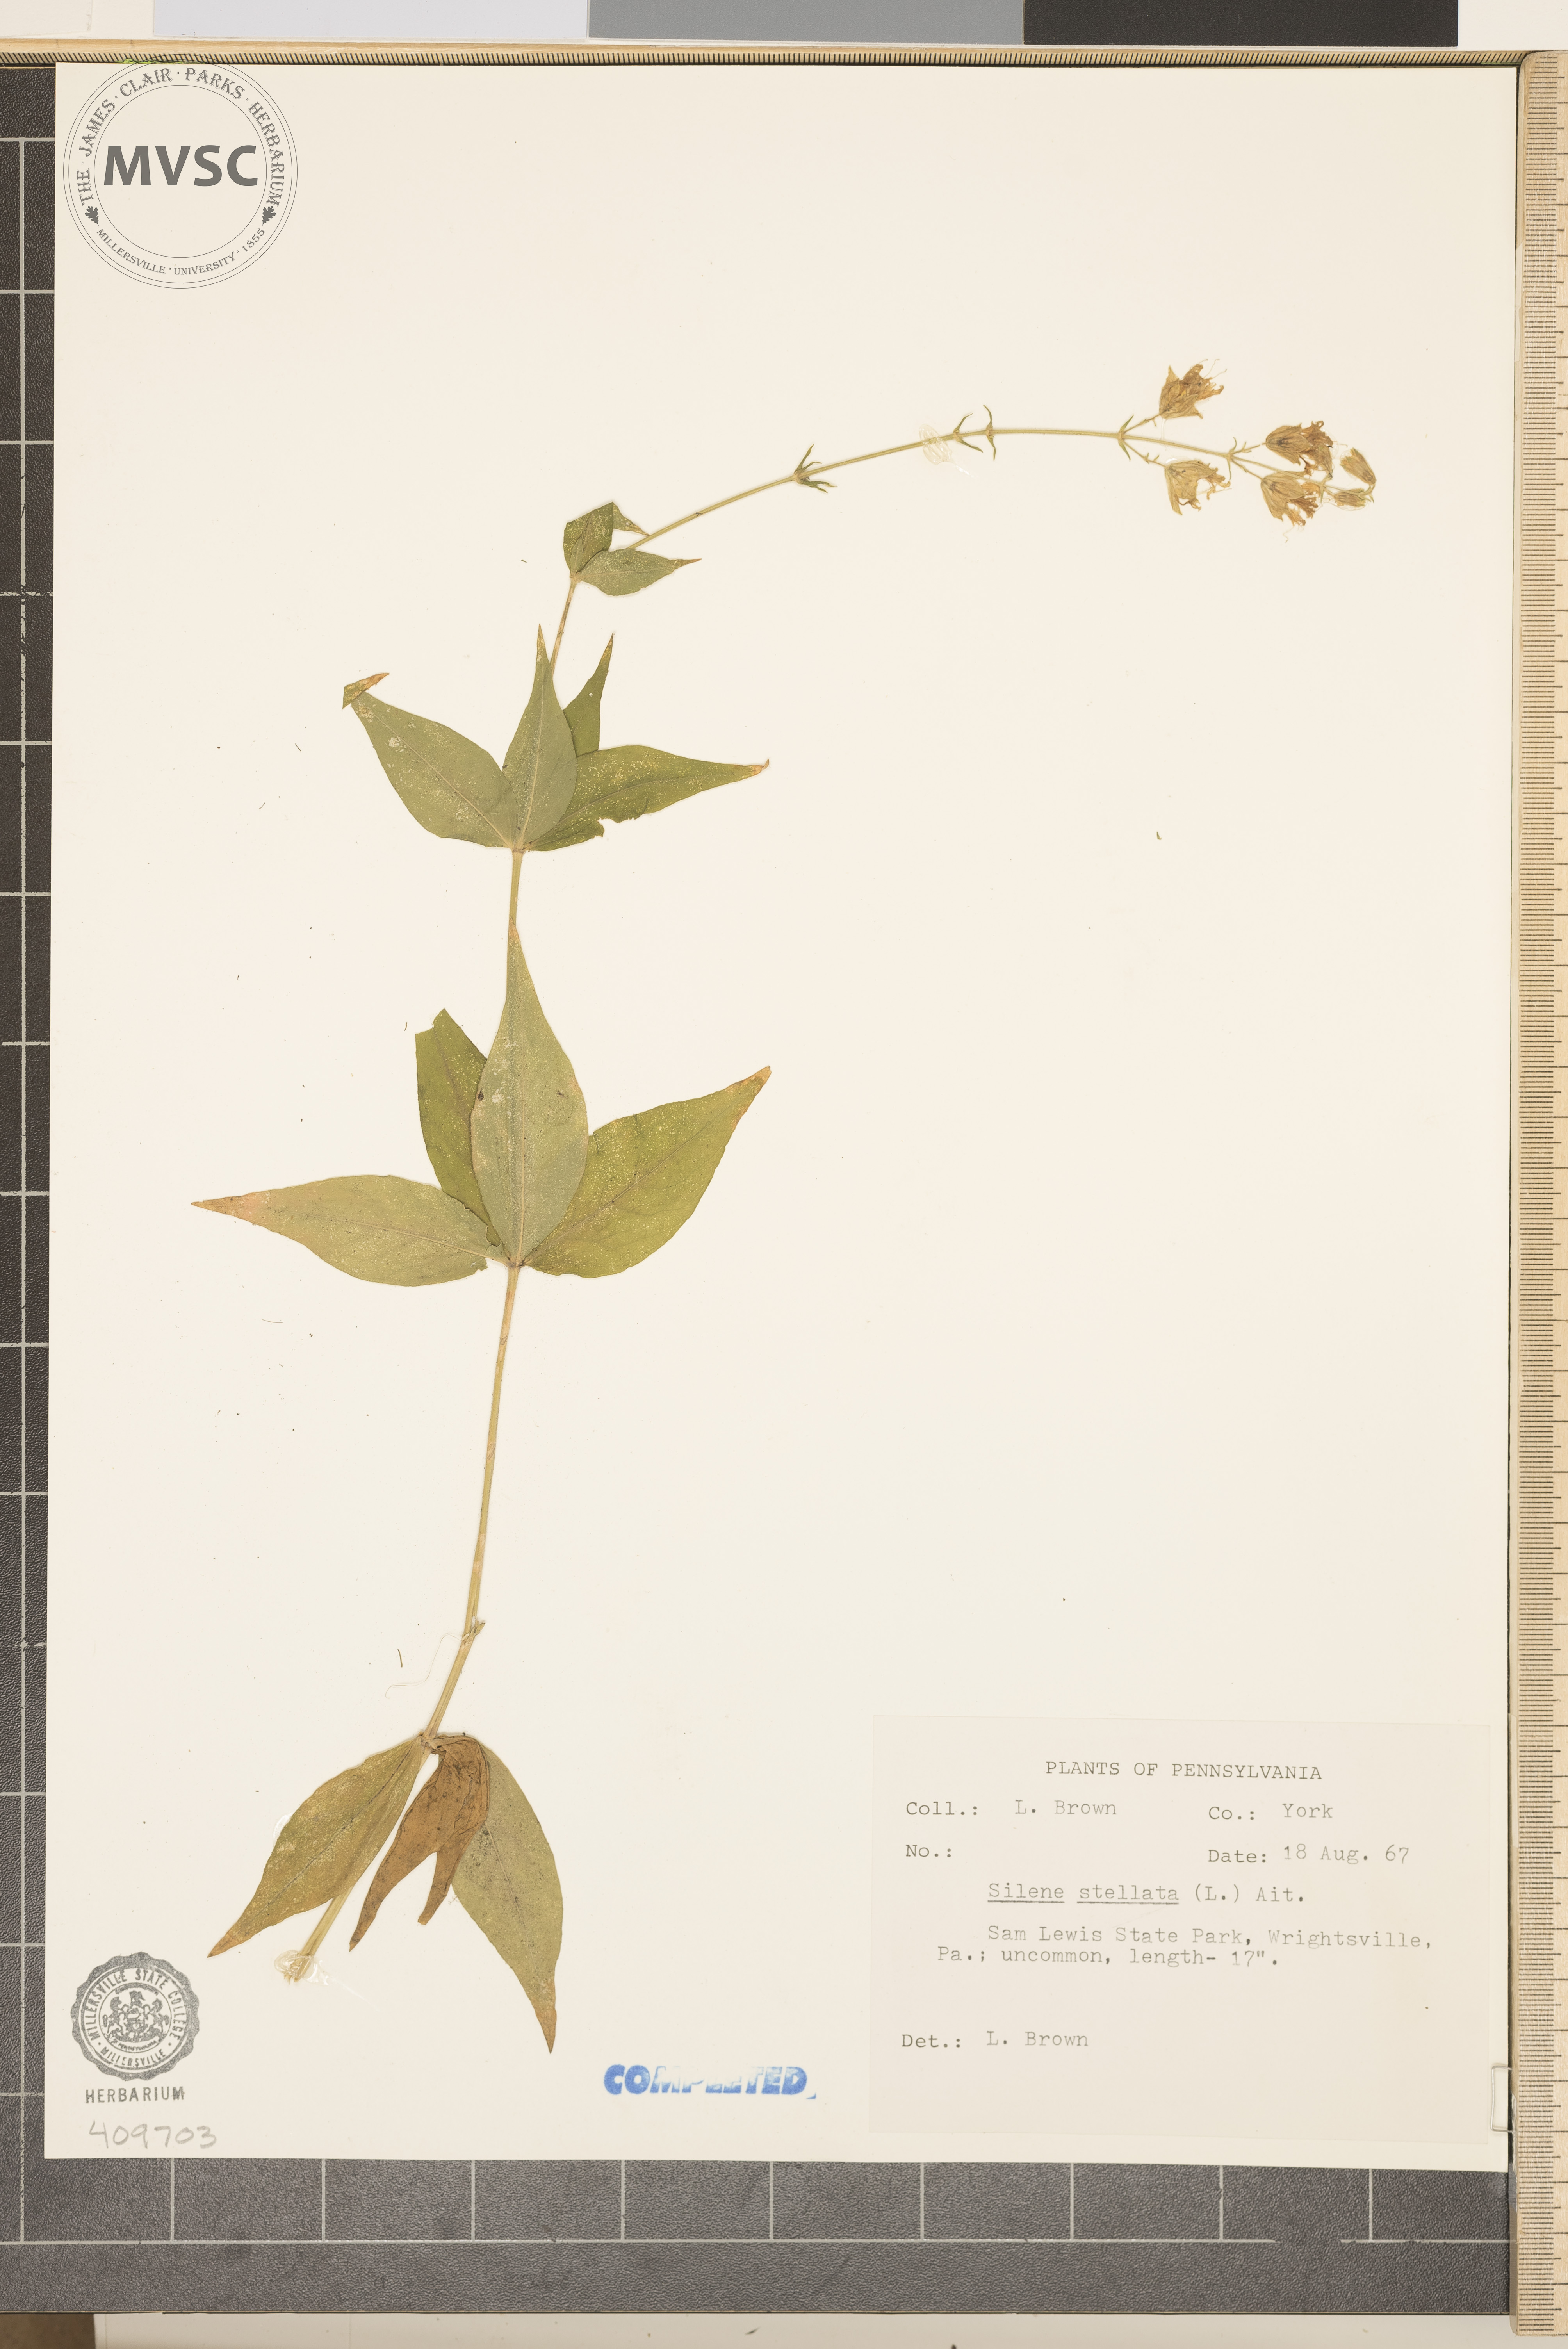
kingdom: Plantae
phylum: Tracheophyta
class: Magnoliopsida
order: Caryophyllales
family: Caryophyllaceae
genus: Silene
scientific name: Silene stellata
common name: Starry campion
